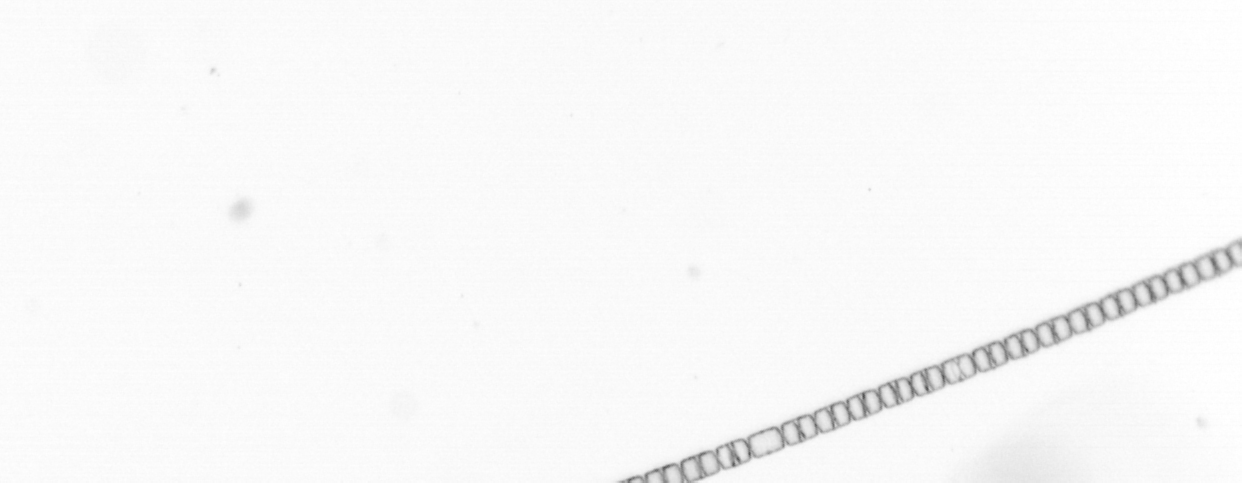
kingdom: Chromista
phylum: Ochrophyta
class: Bacillariophyceae
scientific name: Bacillariophyceae
